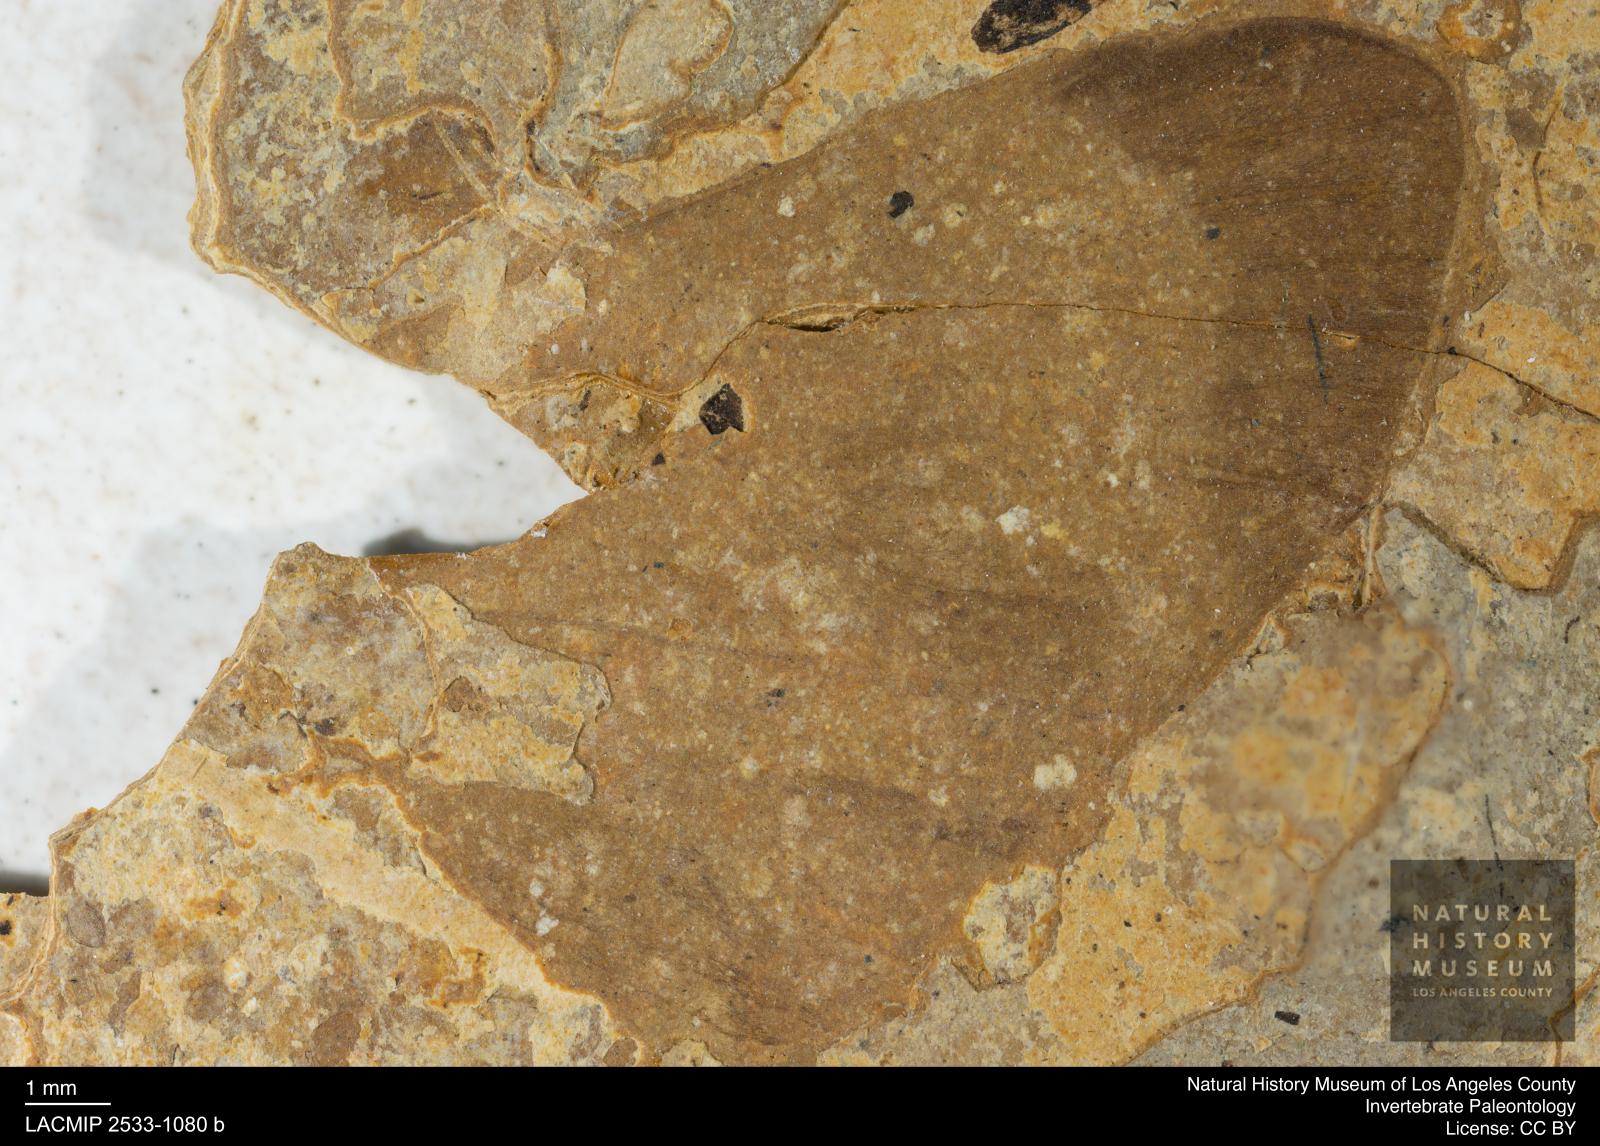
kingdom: Animalia
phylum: Arthropoda
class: Insecta
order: Lepidoptera
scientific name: Lepidoptera
